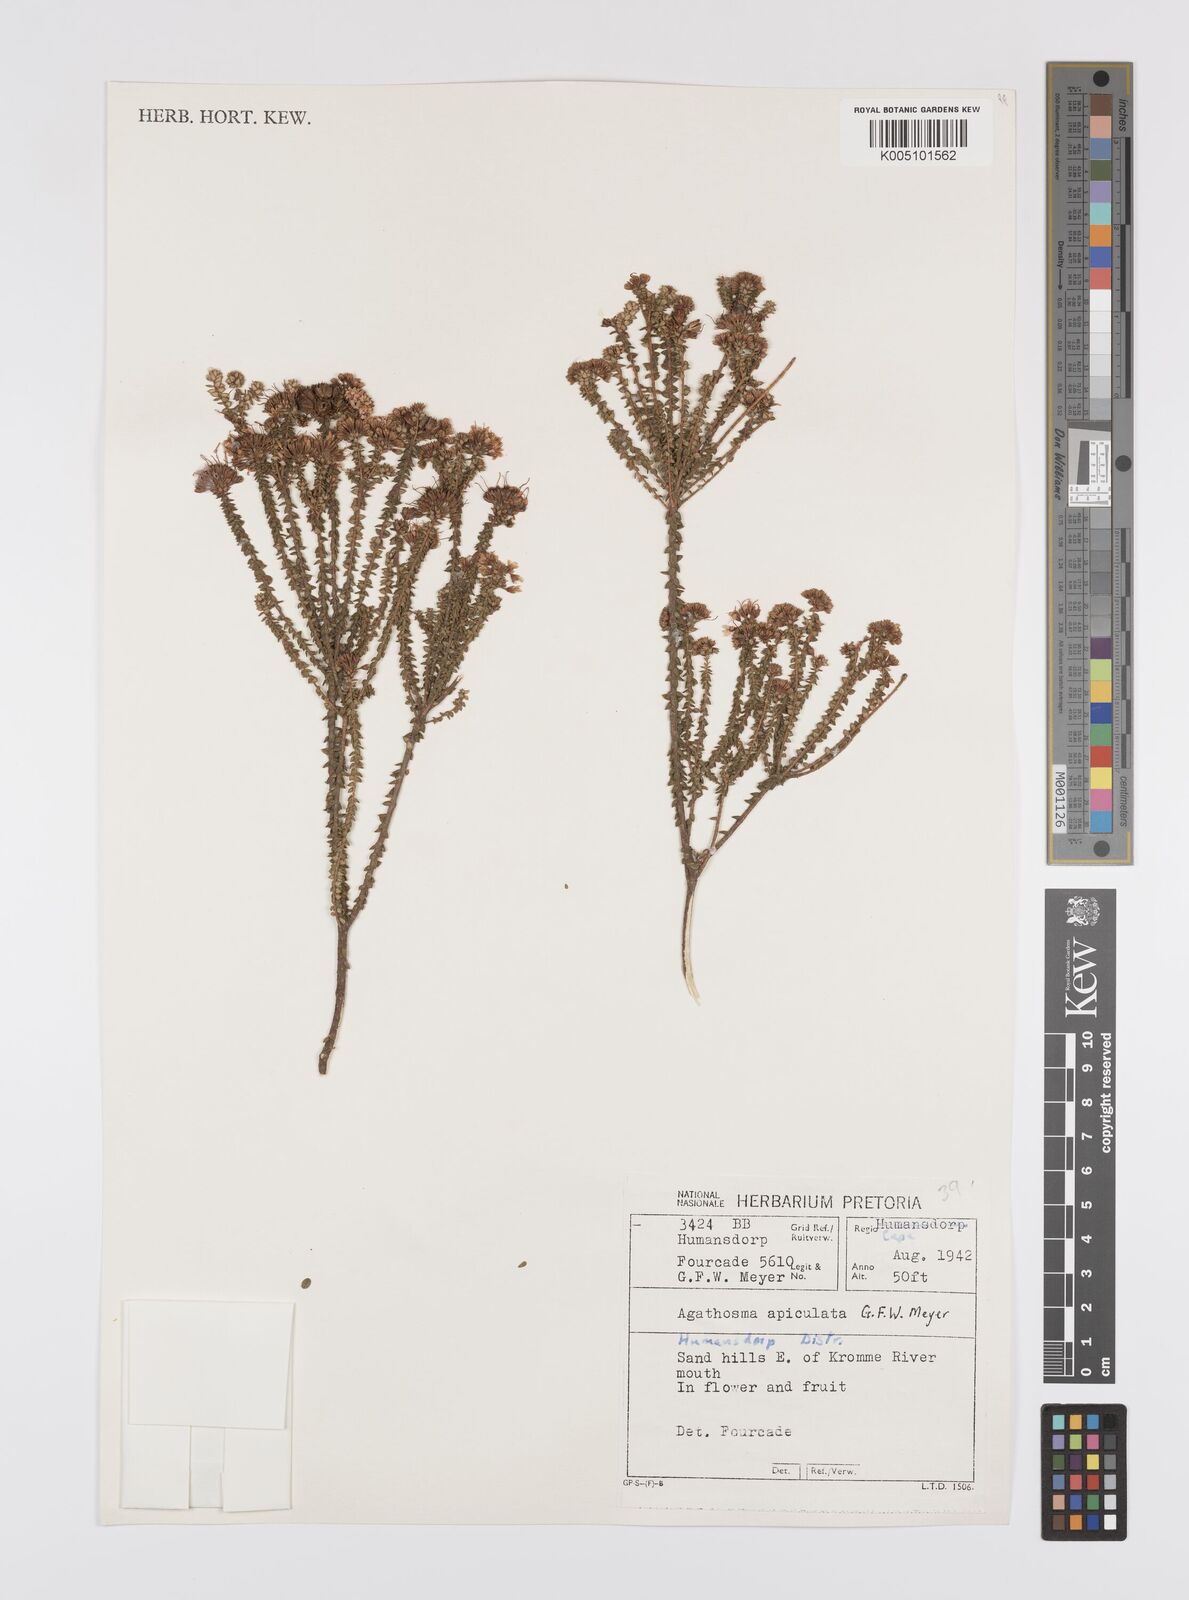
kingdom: Plantae
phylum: Tracheophyta
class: Magnoliopsida
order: Sapindales
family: Rutaceae
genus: Agathosma
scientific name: Agathosma
